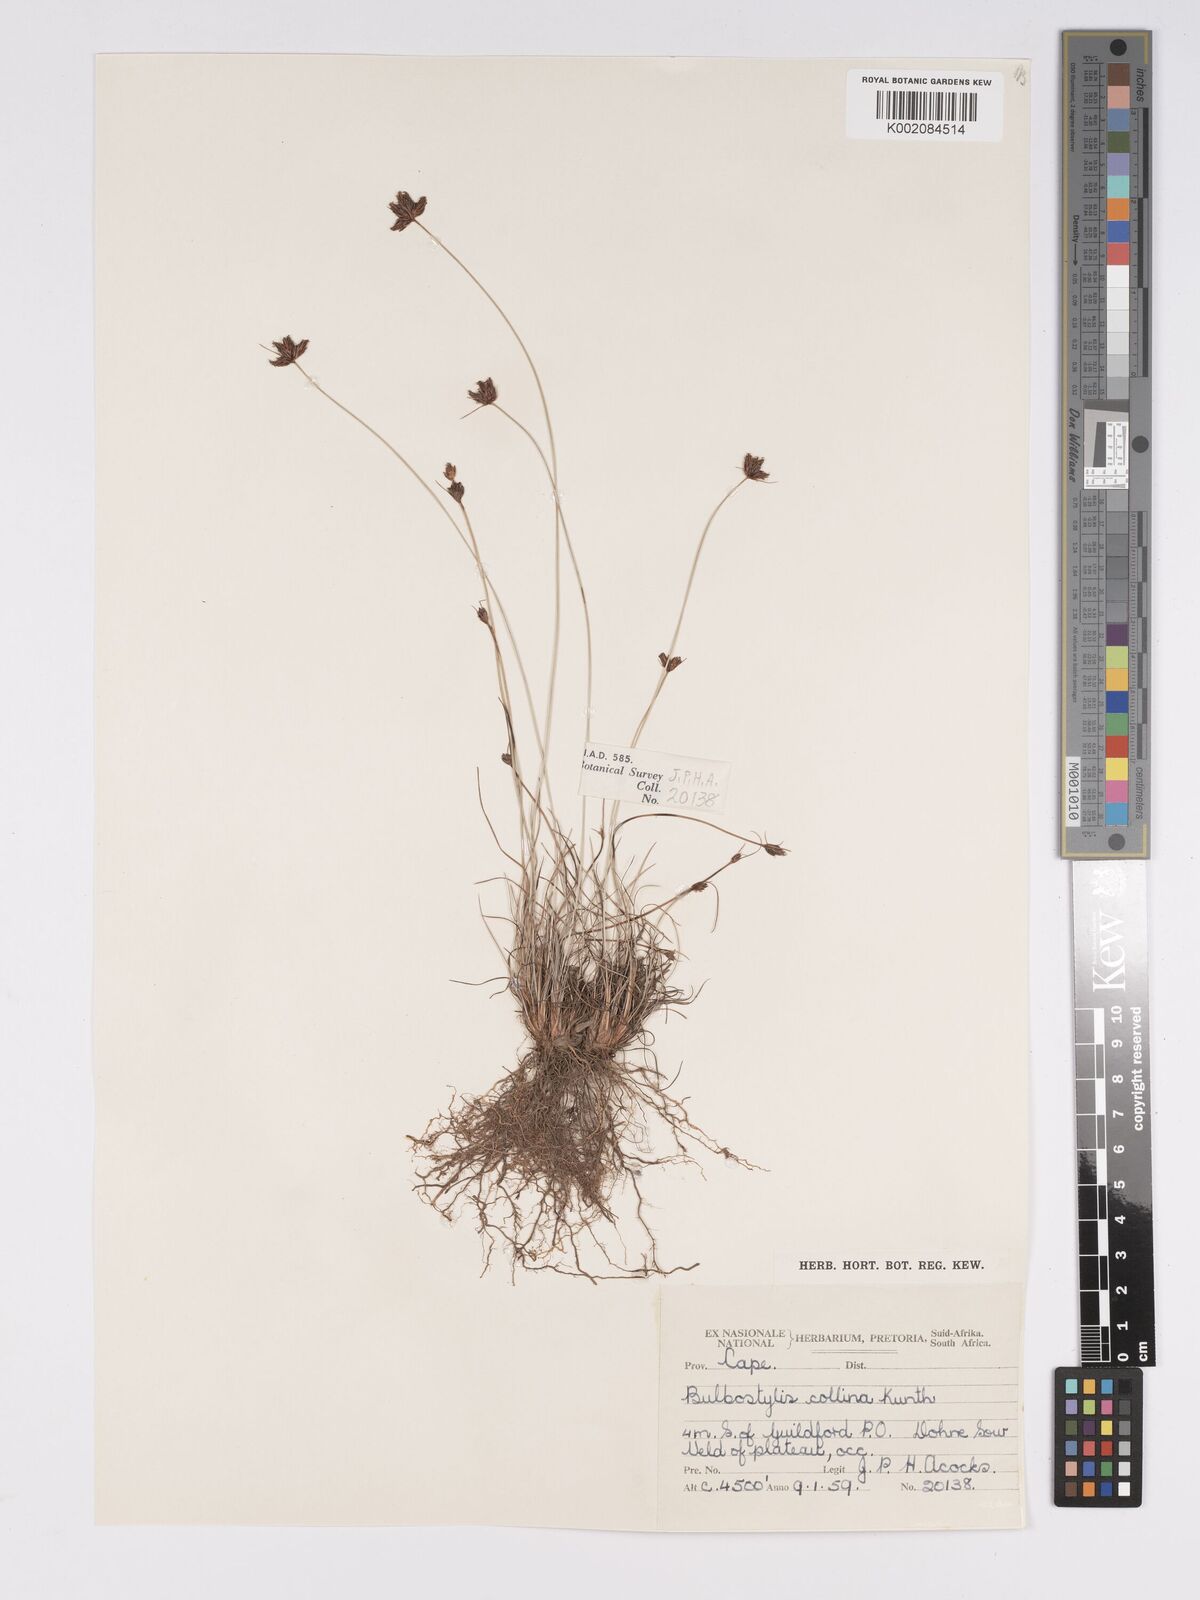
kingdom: Plantae
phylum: Tracheophyta
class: Liliopsida
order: Poales
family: Cyperaceae
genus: Bulbostylis
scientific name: Bulbostylis contexta
